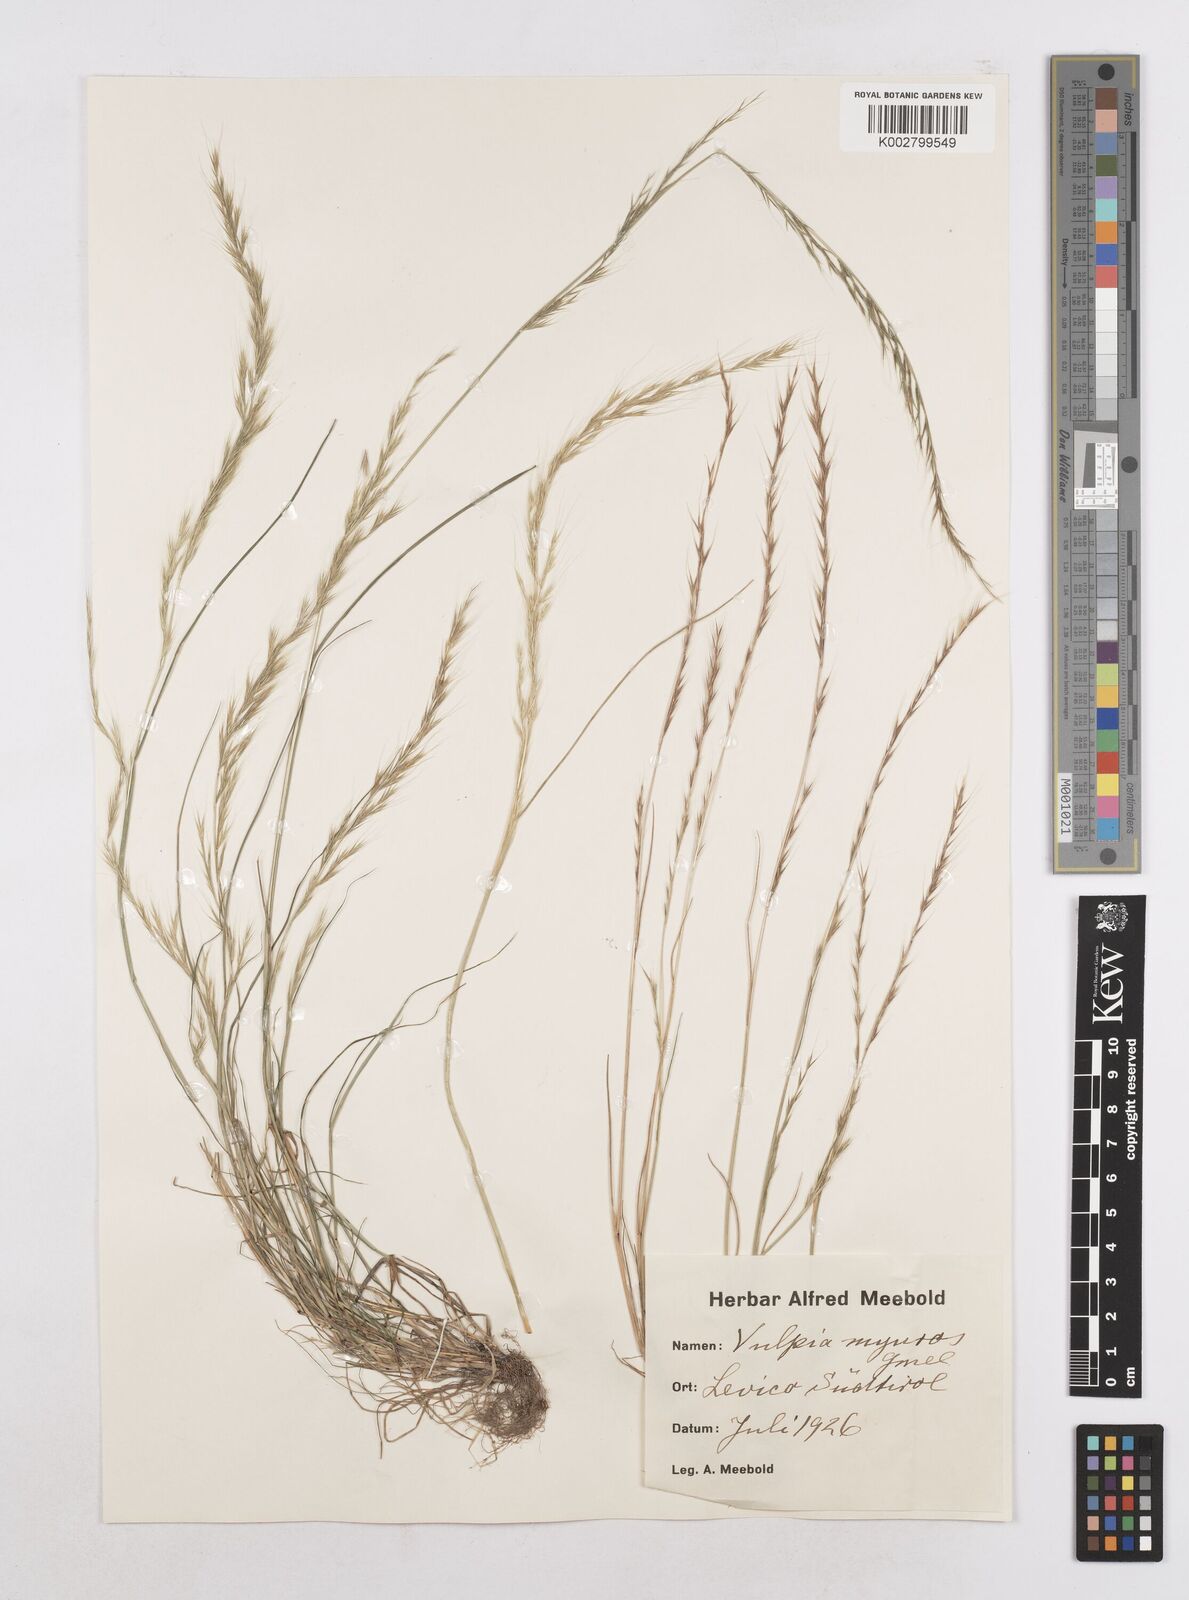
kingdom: Plantae
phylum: Tracheophyta
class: Liliopsida
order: Poales
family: Poaceae
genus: Festuca
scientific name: Festuca myuros
